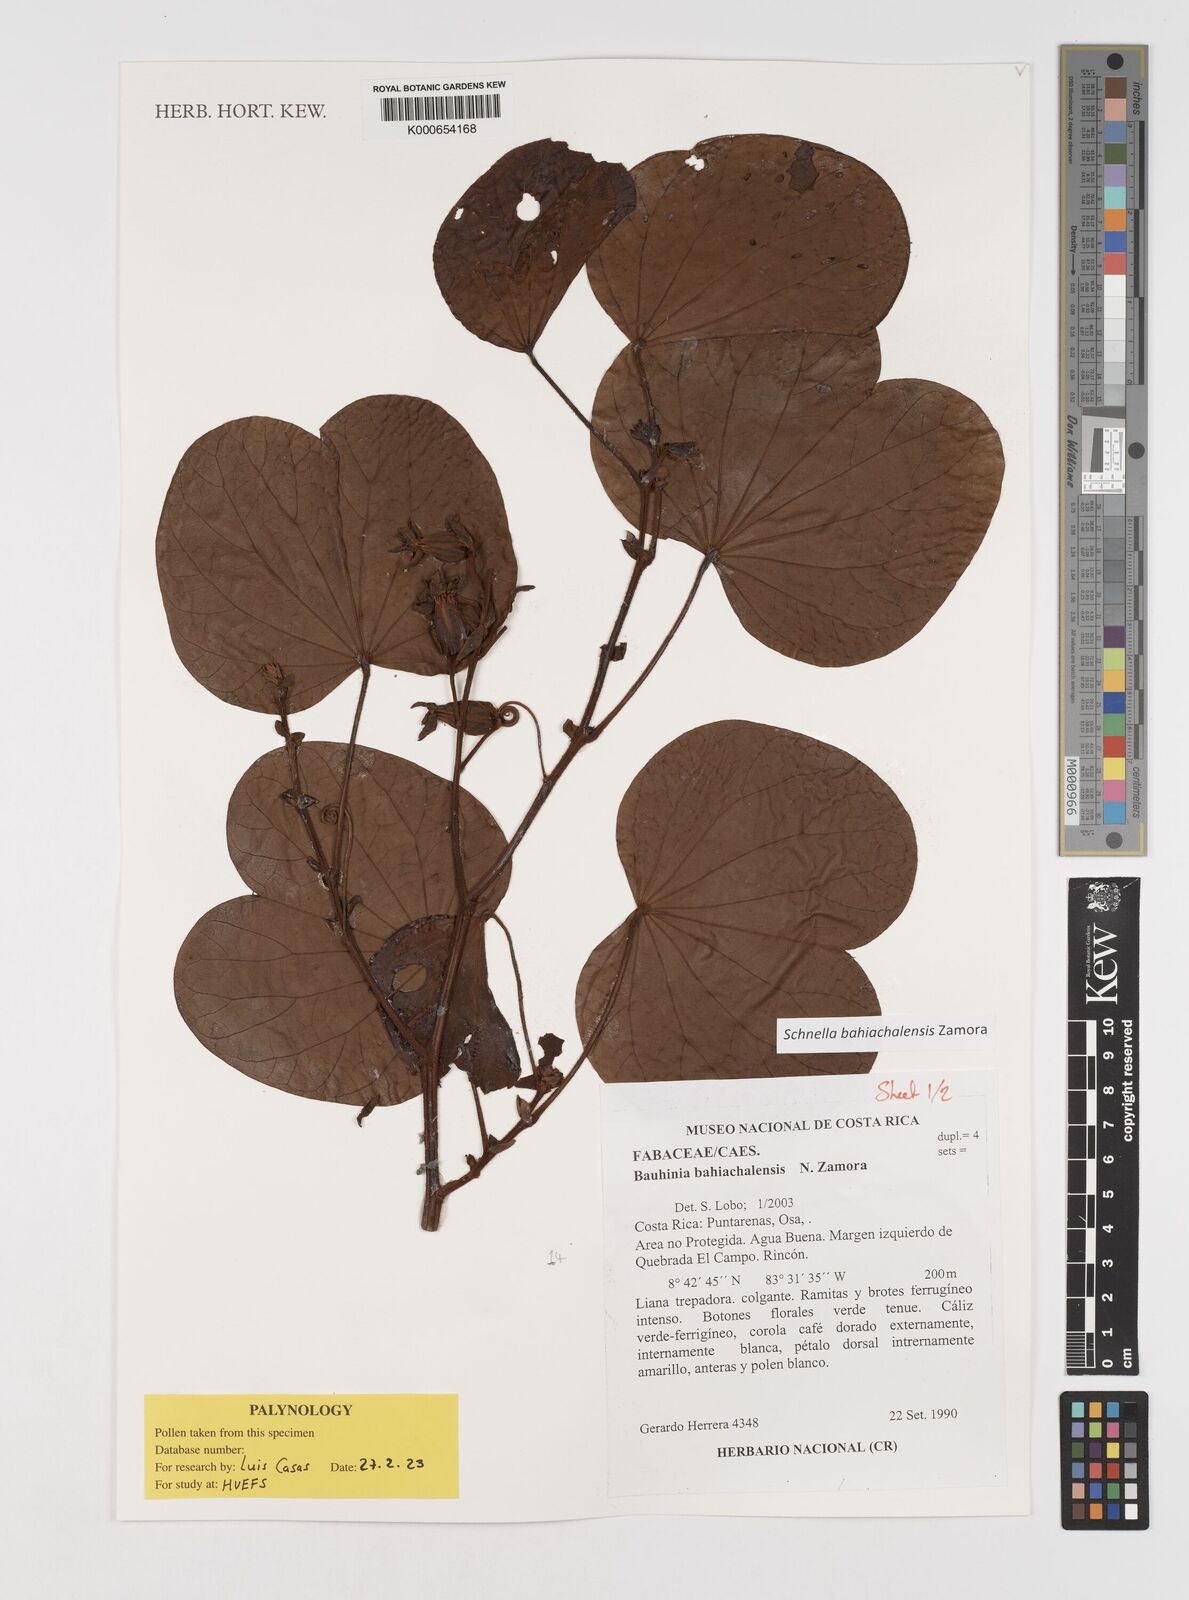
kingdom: Plantae
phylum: Tracheophyta
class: Magnoliopsida
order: Fabales
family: Fabaceae
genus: Bauhinia
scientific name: Bauhinia
